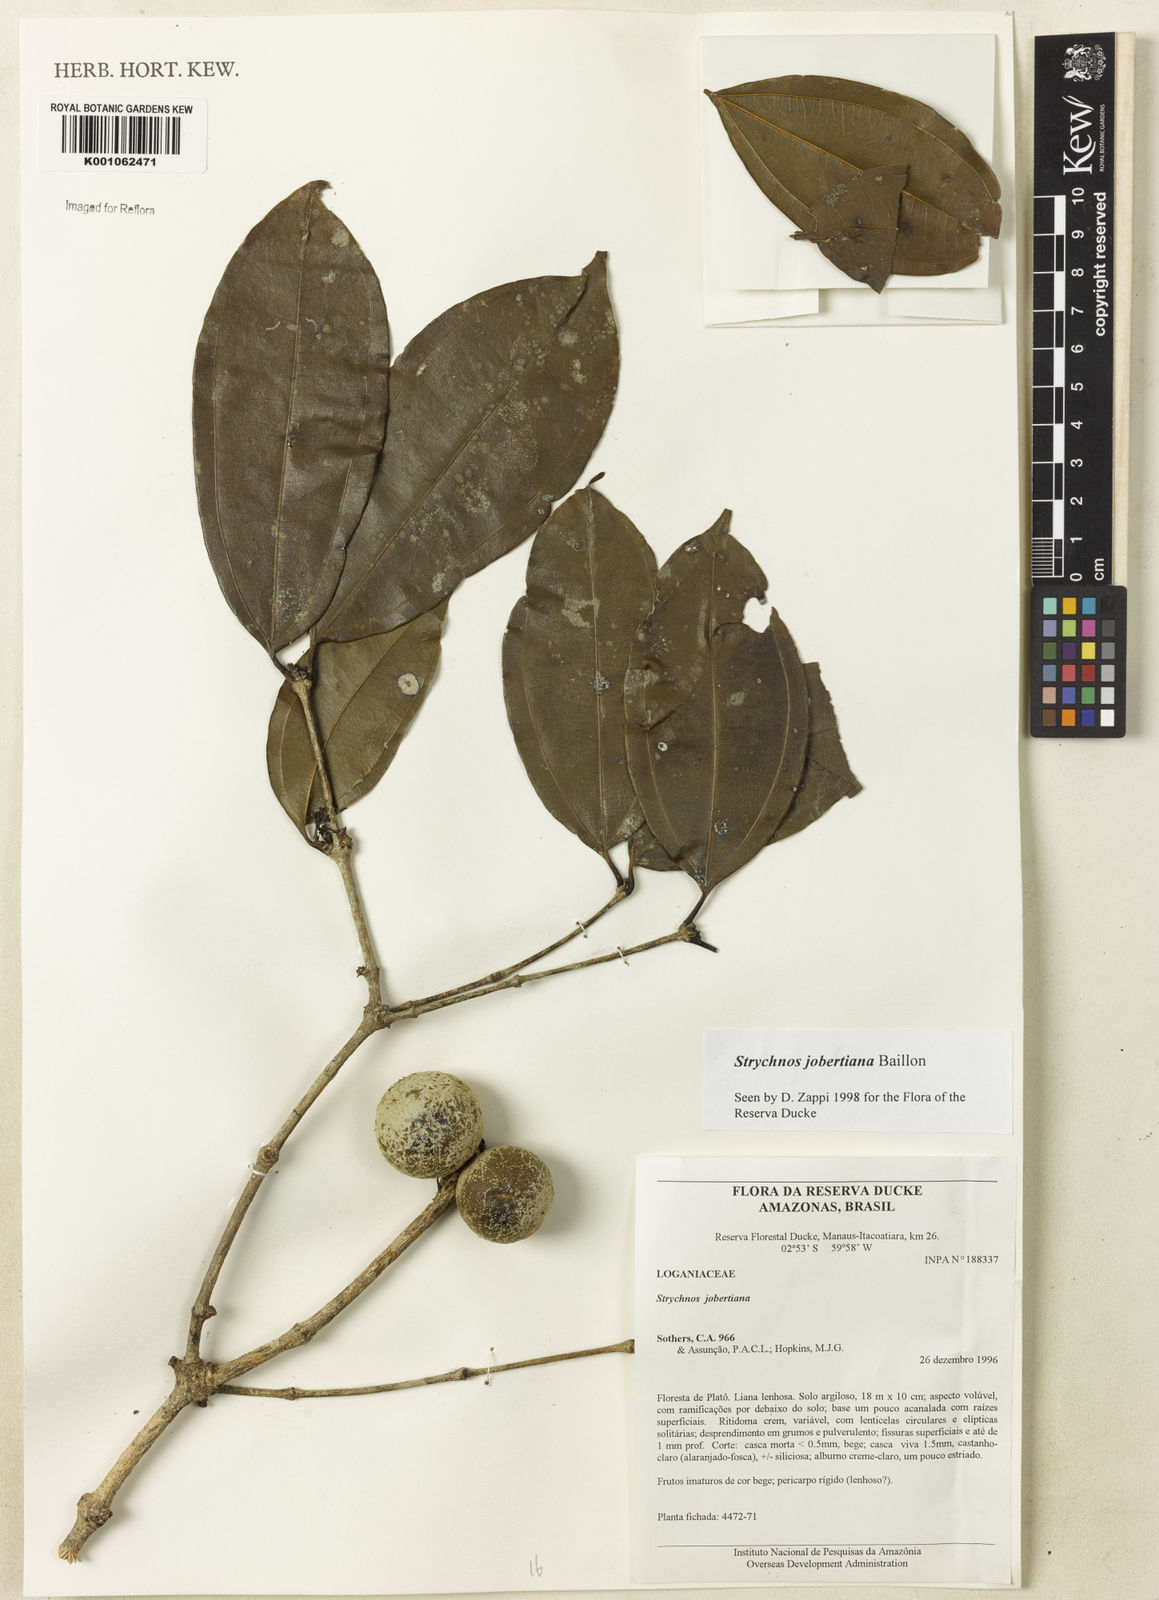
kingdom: Plantae
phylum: Tracheophyta
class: Magnoliopsida
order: Gentianales
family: Loganiaceae
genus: Strychnos
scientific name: Strychnos jobertiana
